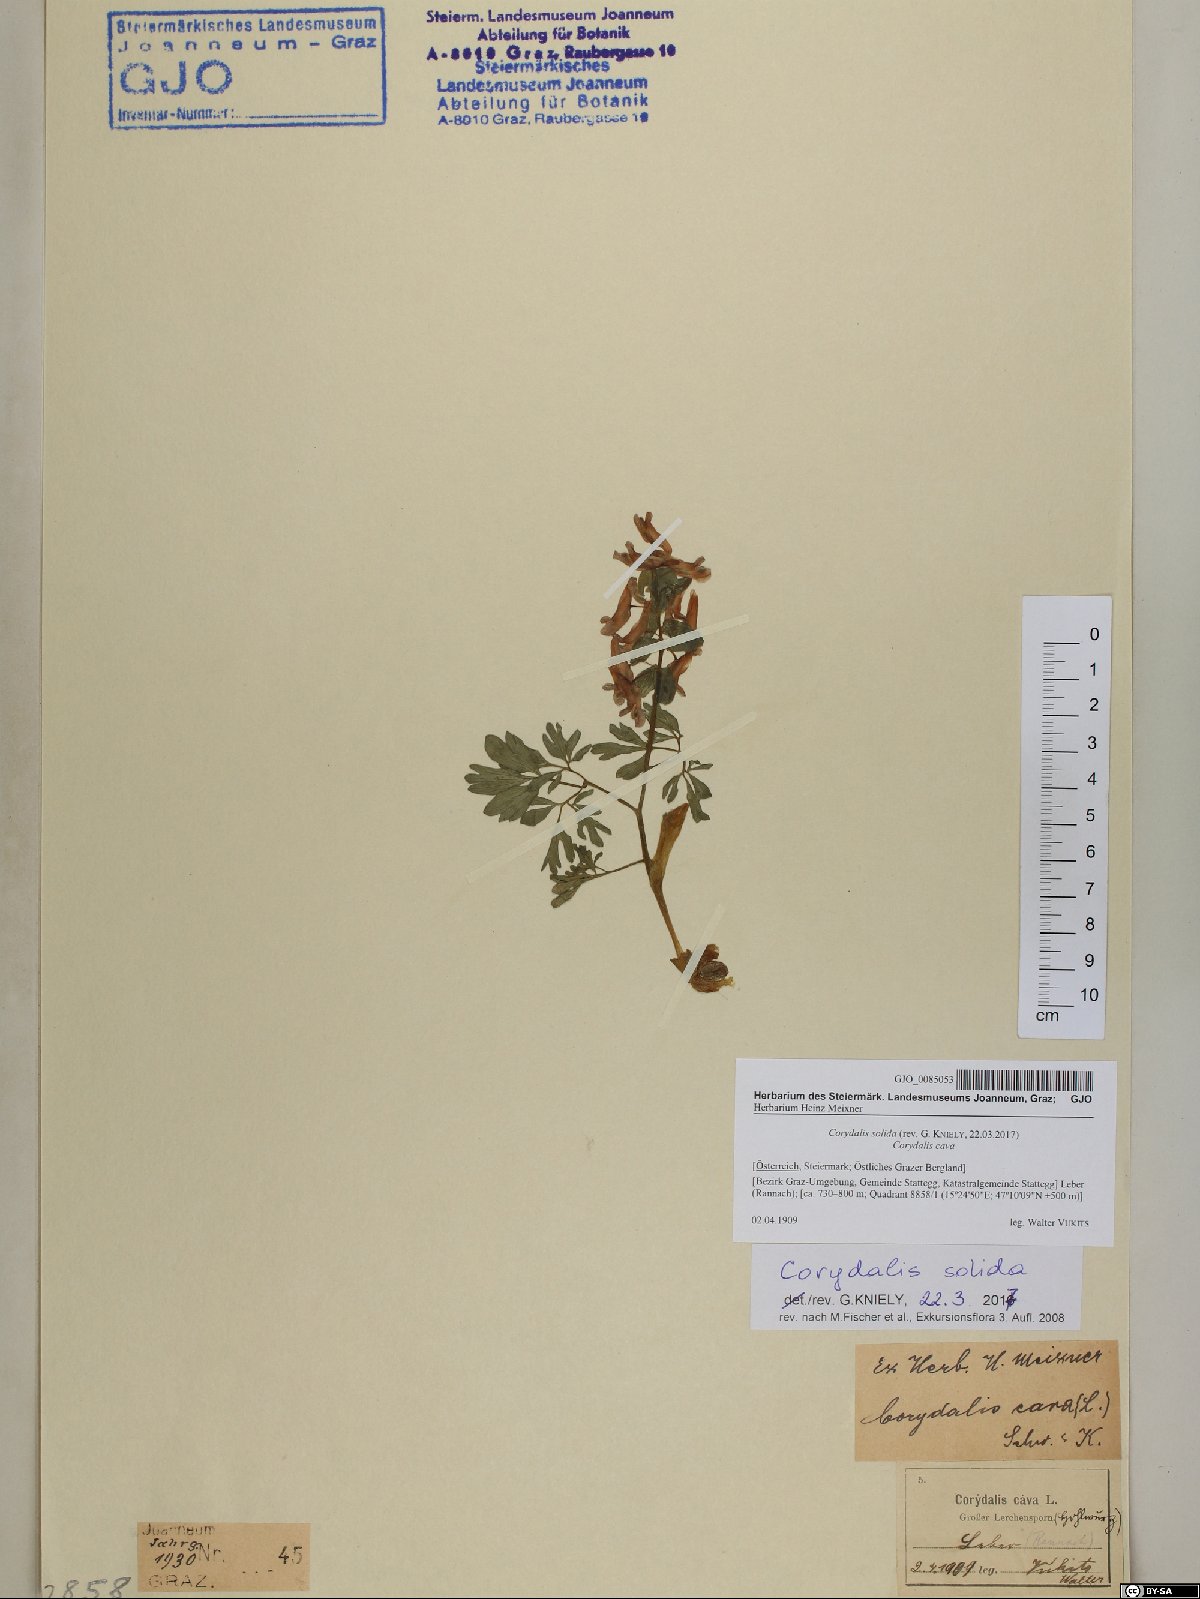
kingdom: Plantae
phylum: Tracheophyta
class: Magnoliopsida
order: Ranunculales
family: Papaveraceae
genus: Corydalis
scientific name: Corydalis solida
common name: Bird-in-a-bush
